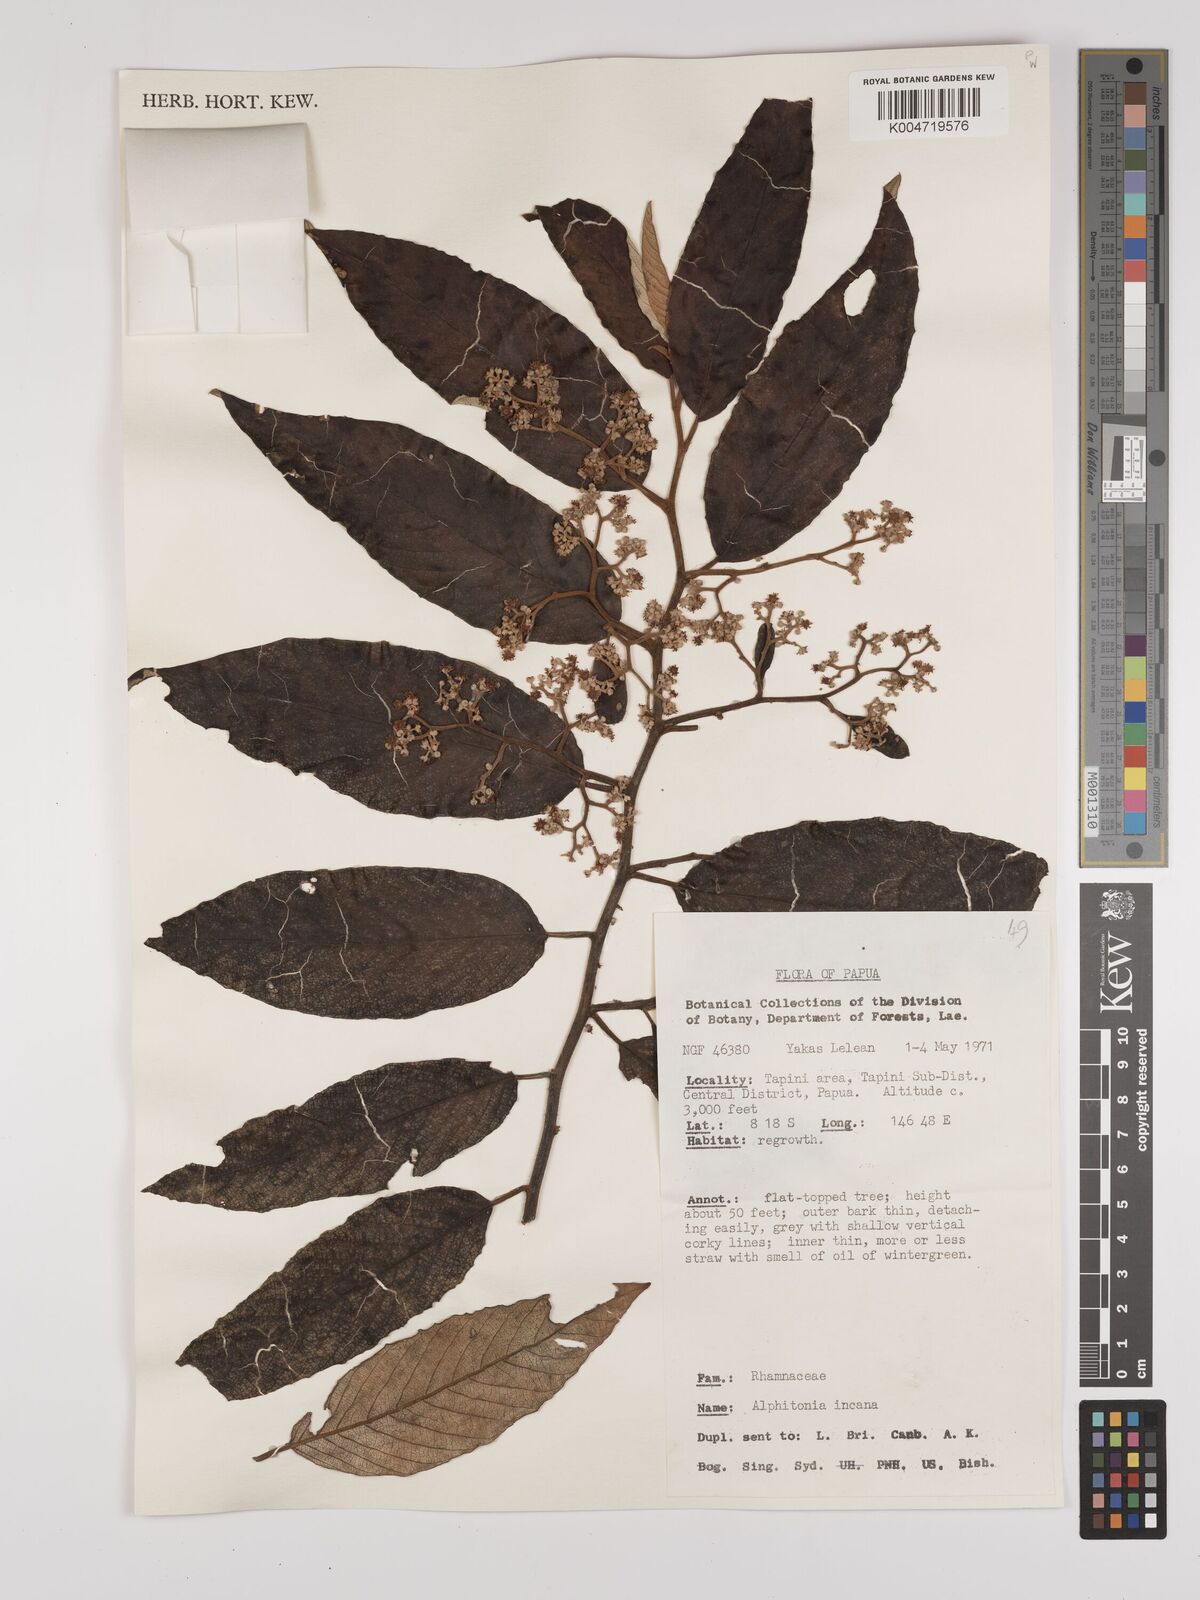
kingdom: Plantae
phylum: Tracheophyta
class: Magnoliopsida
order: Rosales
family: Rhamnaceae
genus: Alphitonia
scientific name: Alphitonia incana
